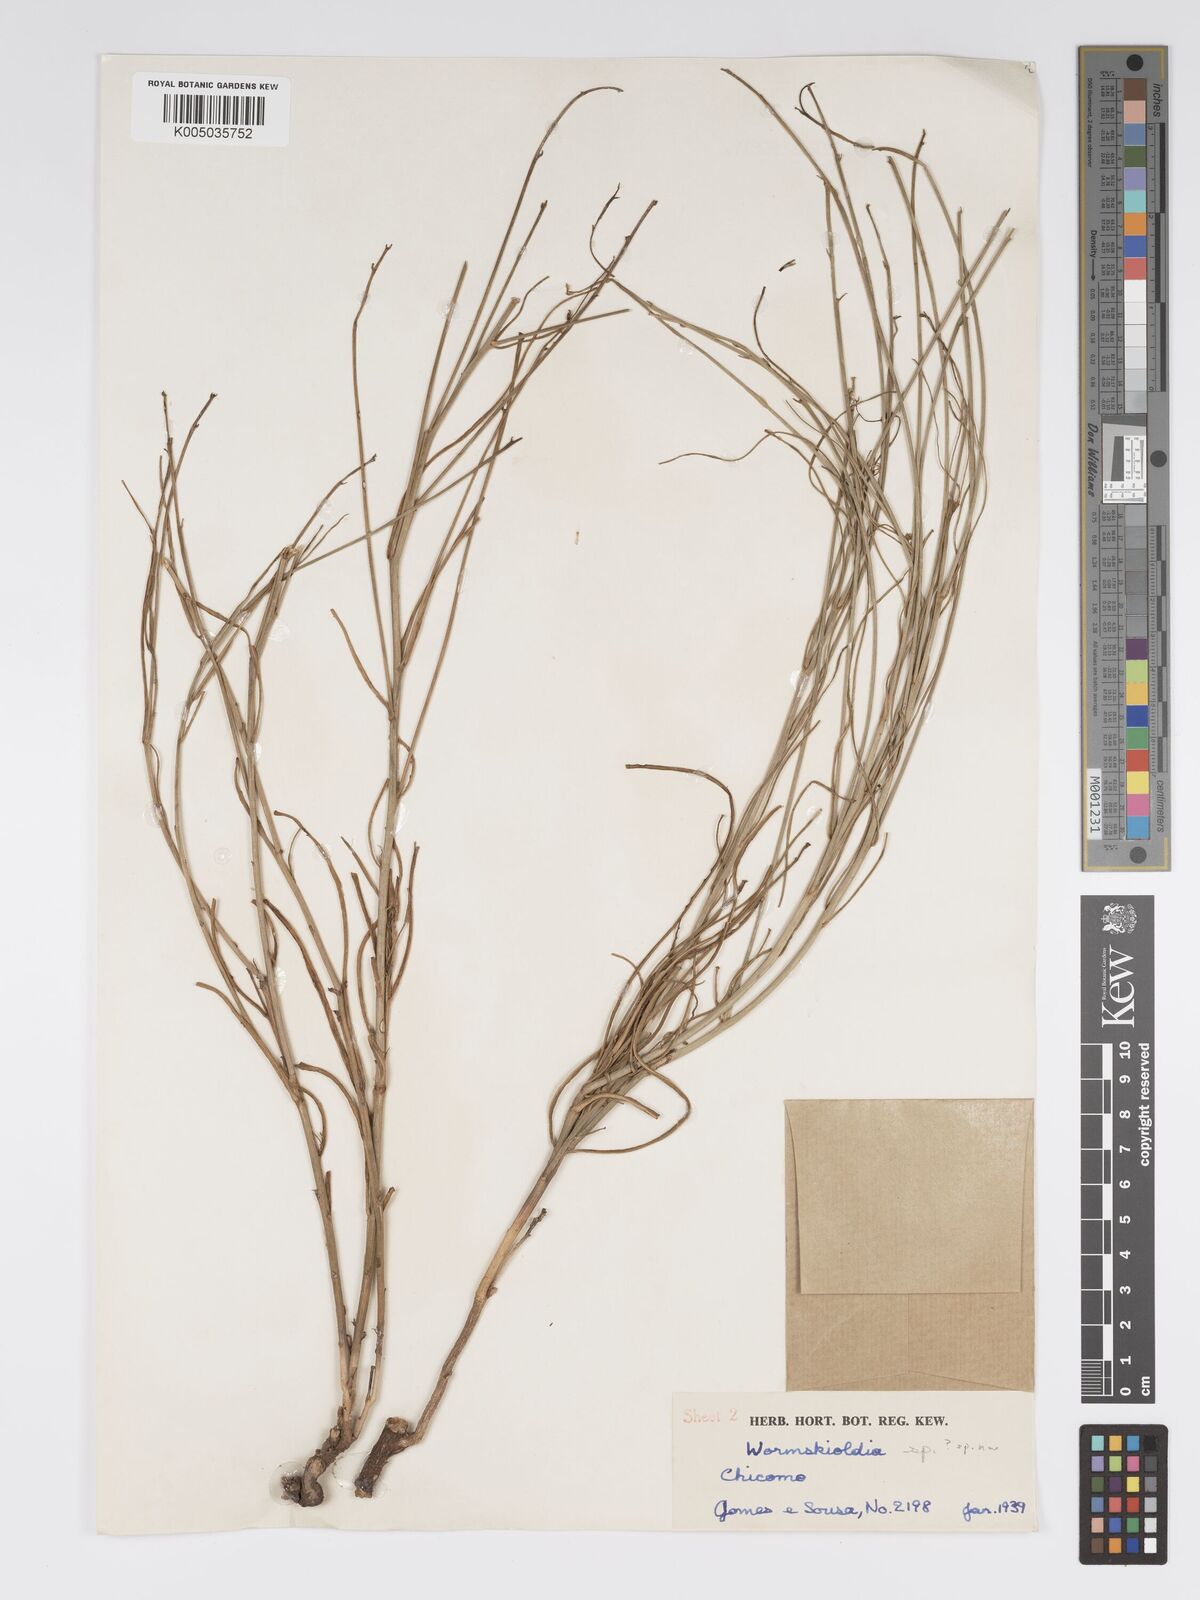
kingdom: Plantae
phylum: Tracheophyta
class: Magnoliopsida
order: Malpighiales
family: Turneraceae
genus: Tricliceras
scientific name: Tricliceras mossambicense
